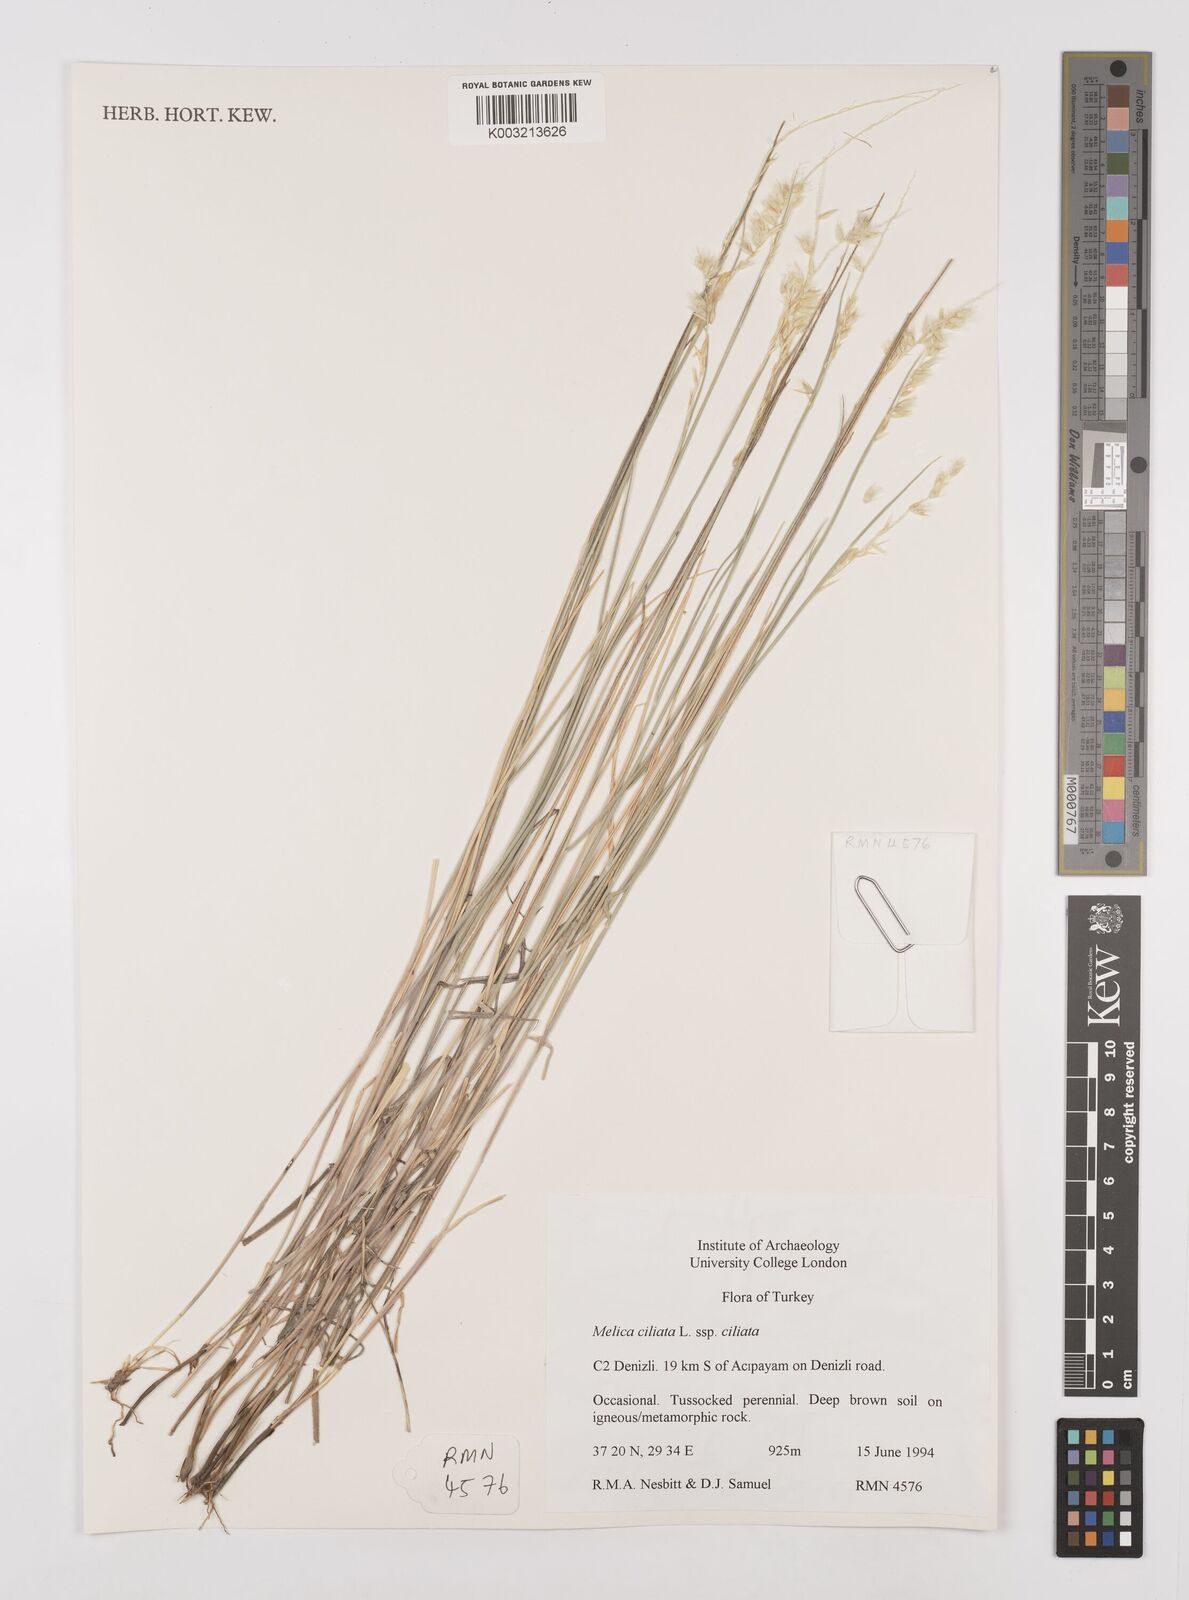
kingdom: Plantae
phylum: Tracheophyta
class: Liliopsida
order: Poales
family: Poaceae
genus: Melica
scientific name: Melica ciliata
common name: Hairy melicgrass
